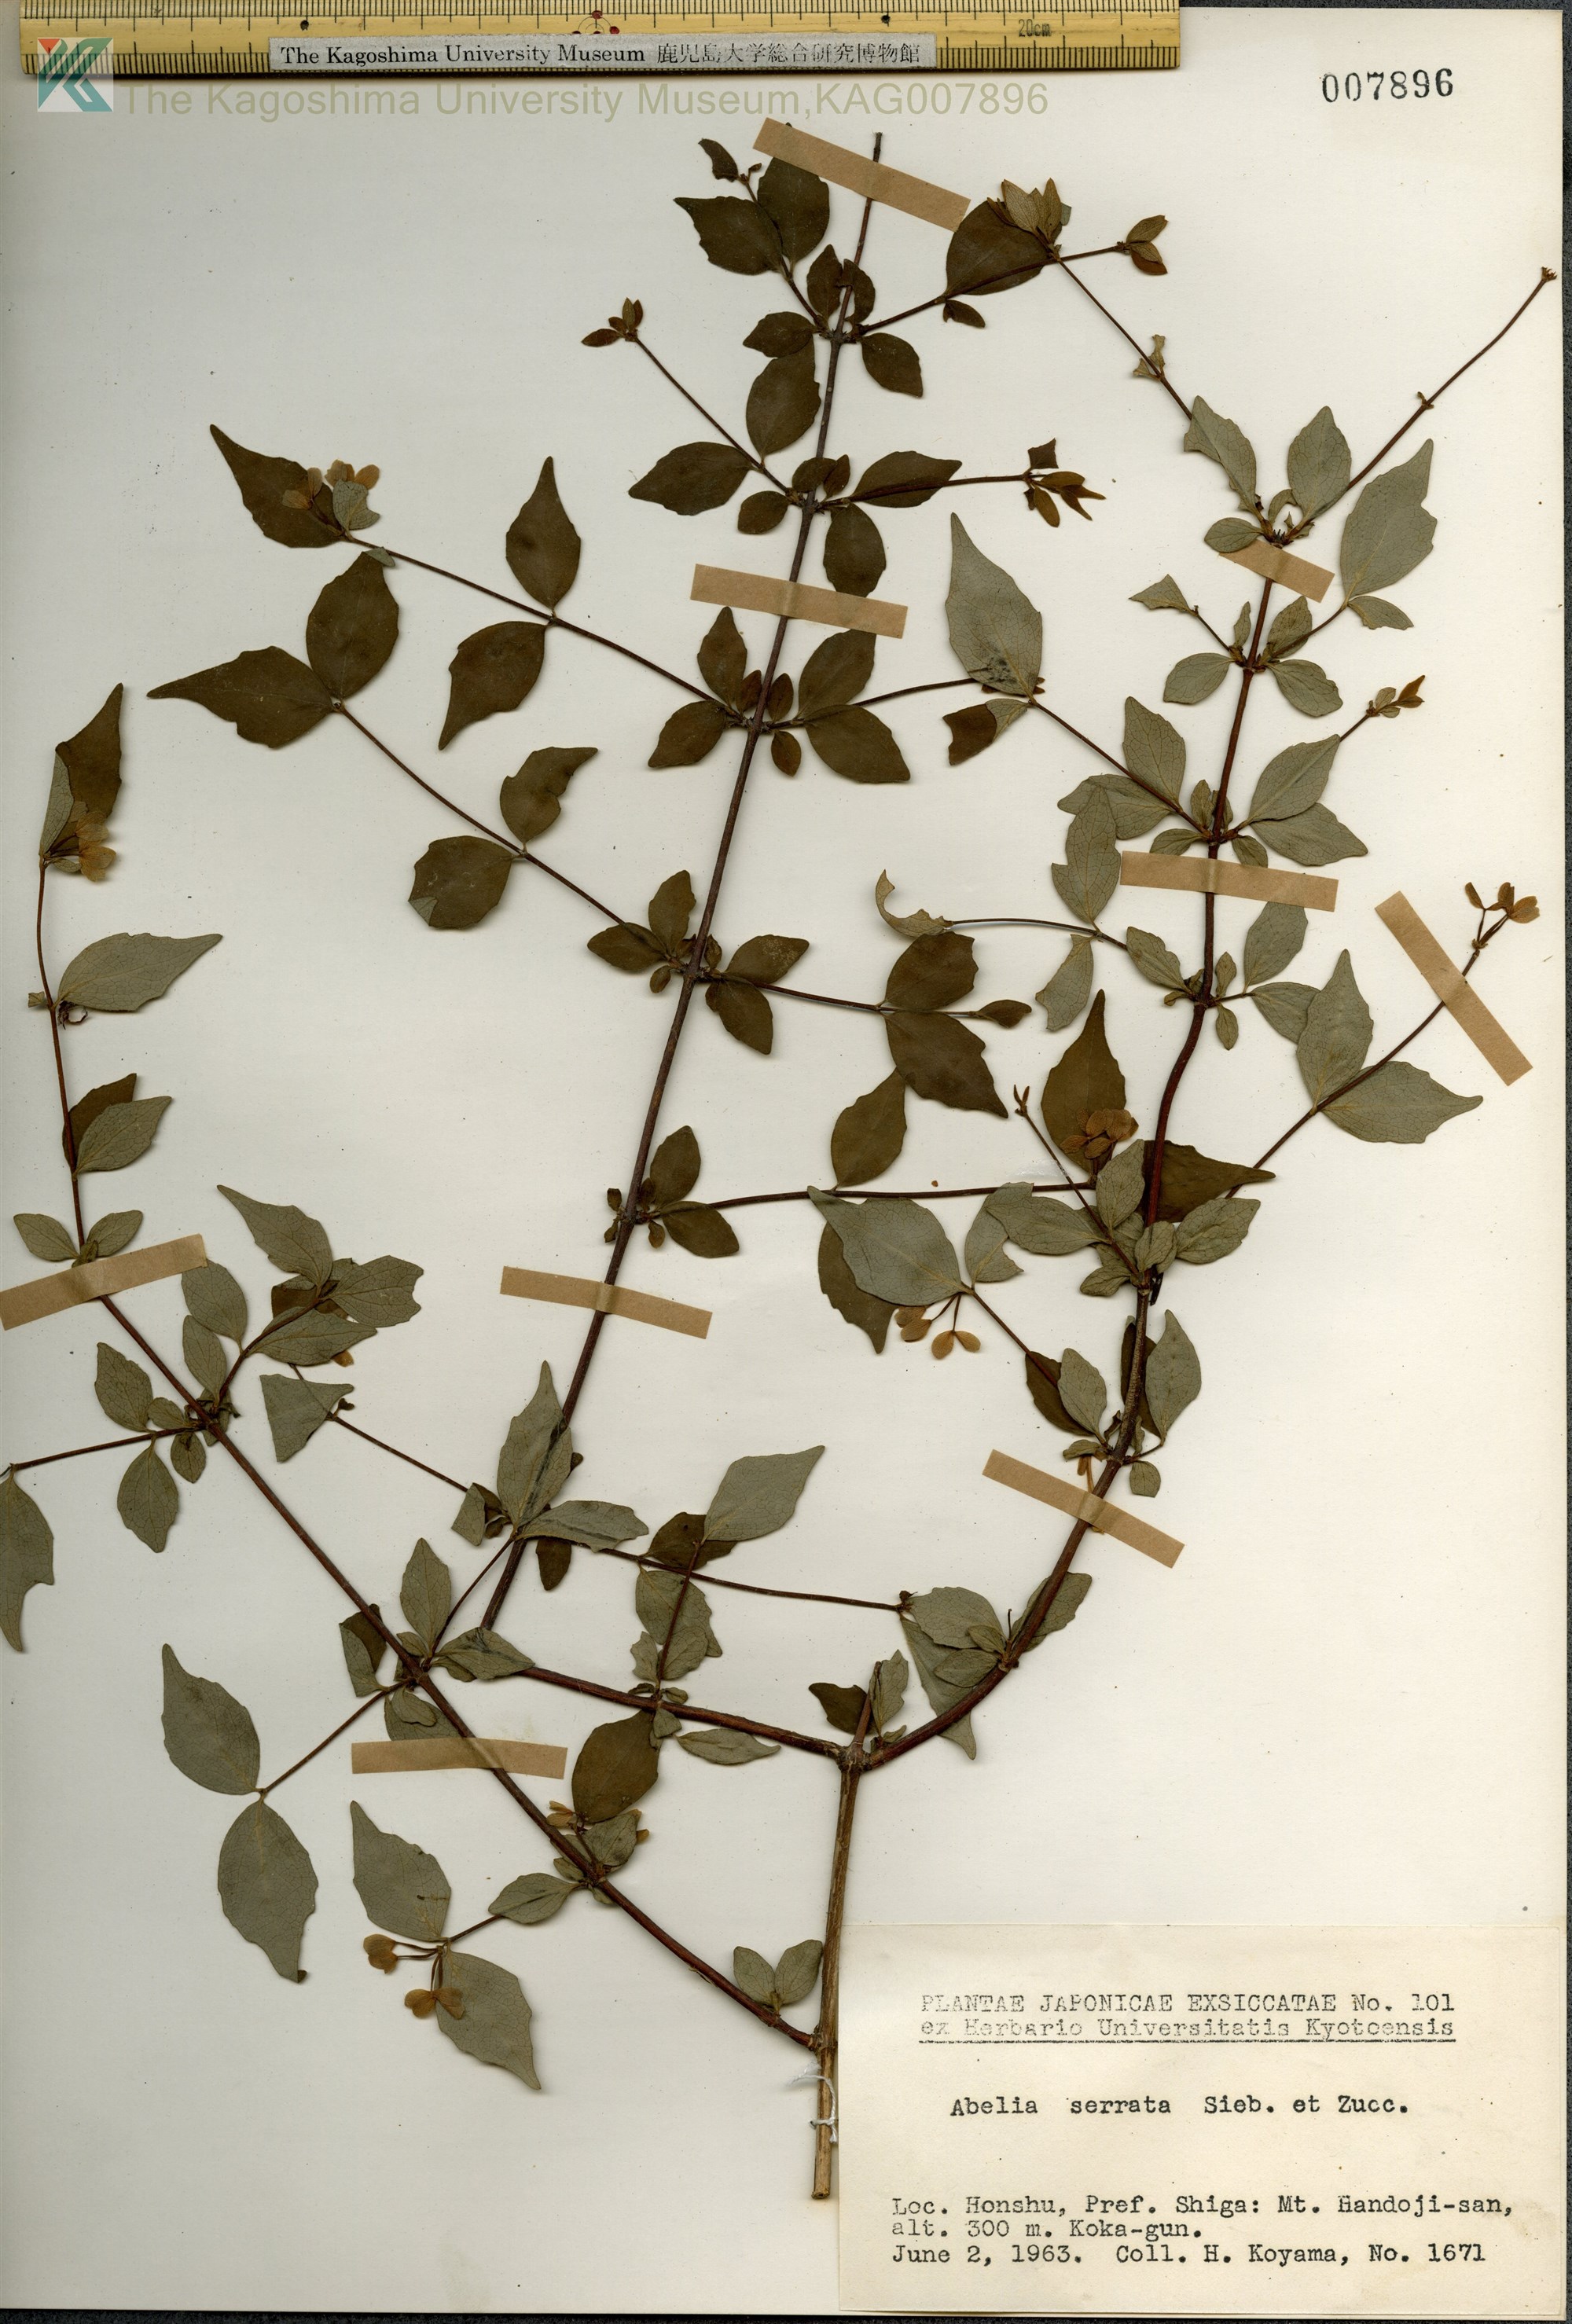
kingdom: Plantae
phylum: Tracheophyta
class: Magnoliopsida
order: Dipsacales
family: Caprifoliaceae
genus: Diabelia
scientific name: Diabelia serrata
